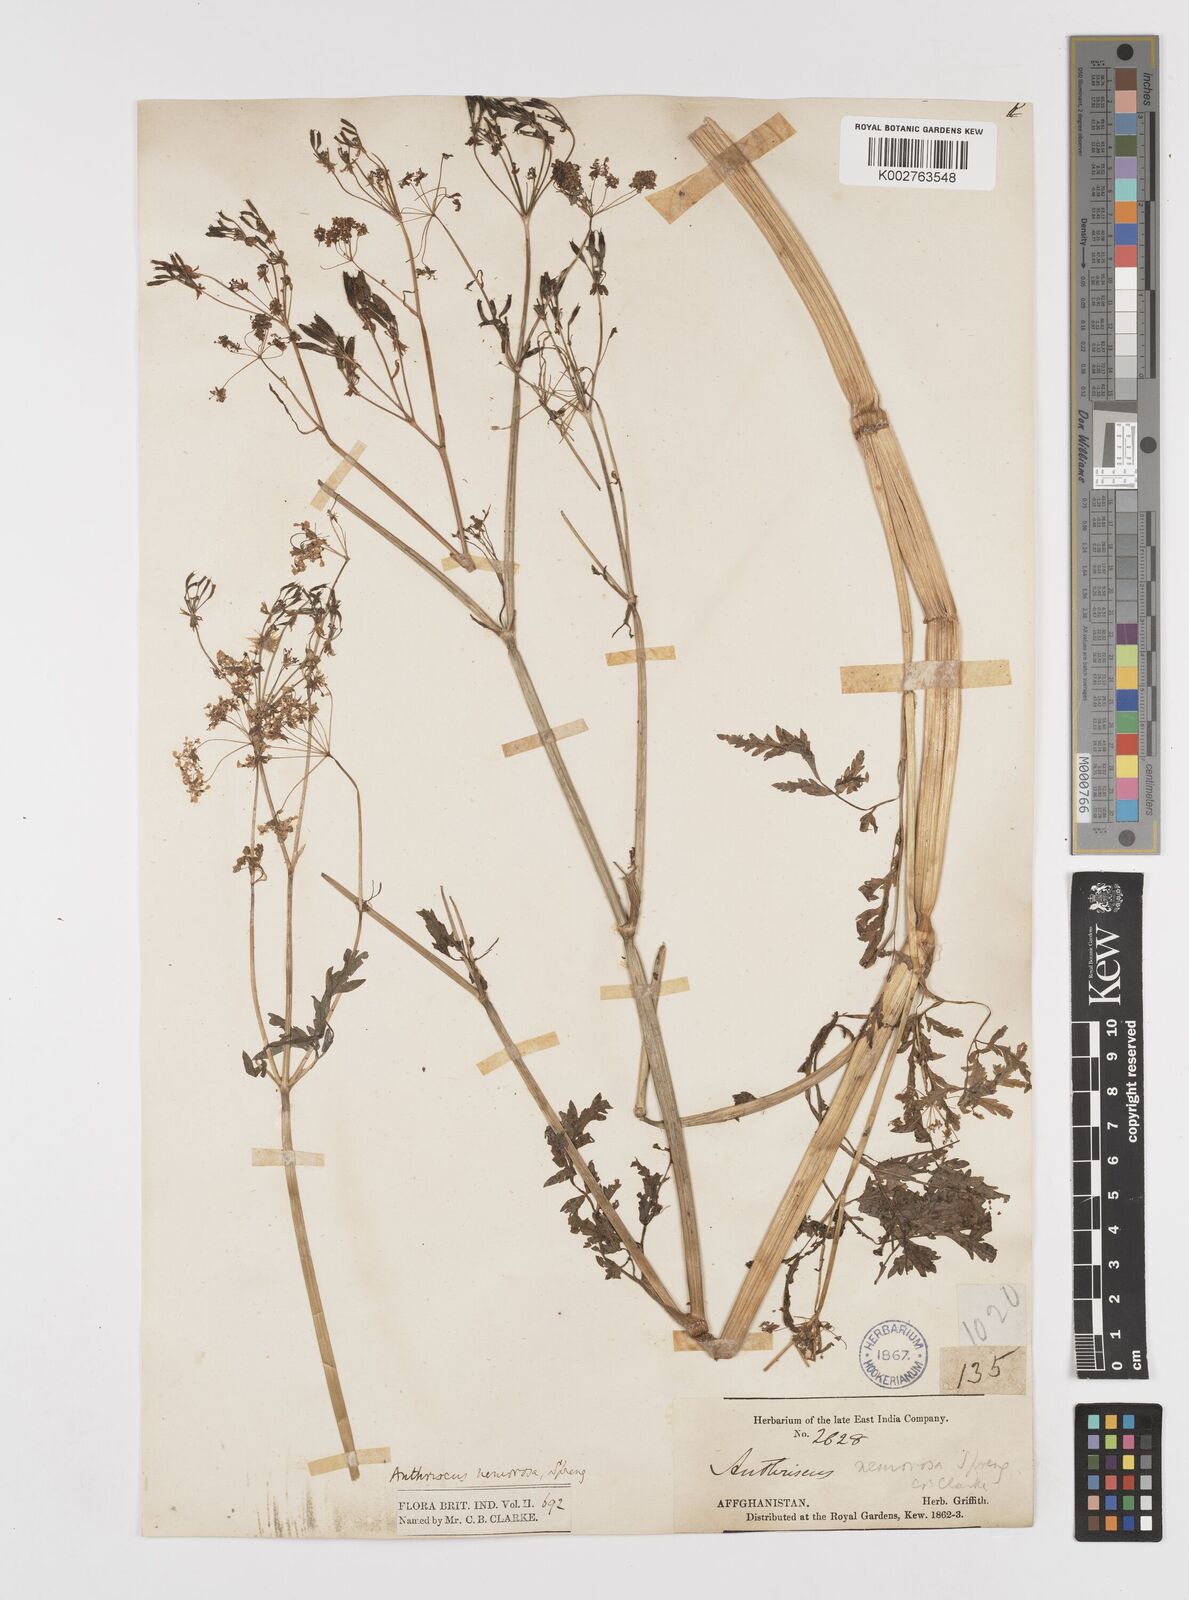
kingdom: Plantae
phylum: Tracheophyta
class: Magnoliopsida
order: Apiales
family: Apiaceae
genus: Anthriscus
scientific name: Anthriscus sylvestris
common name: Cow parsley
